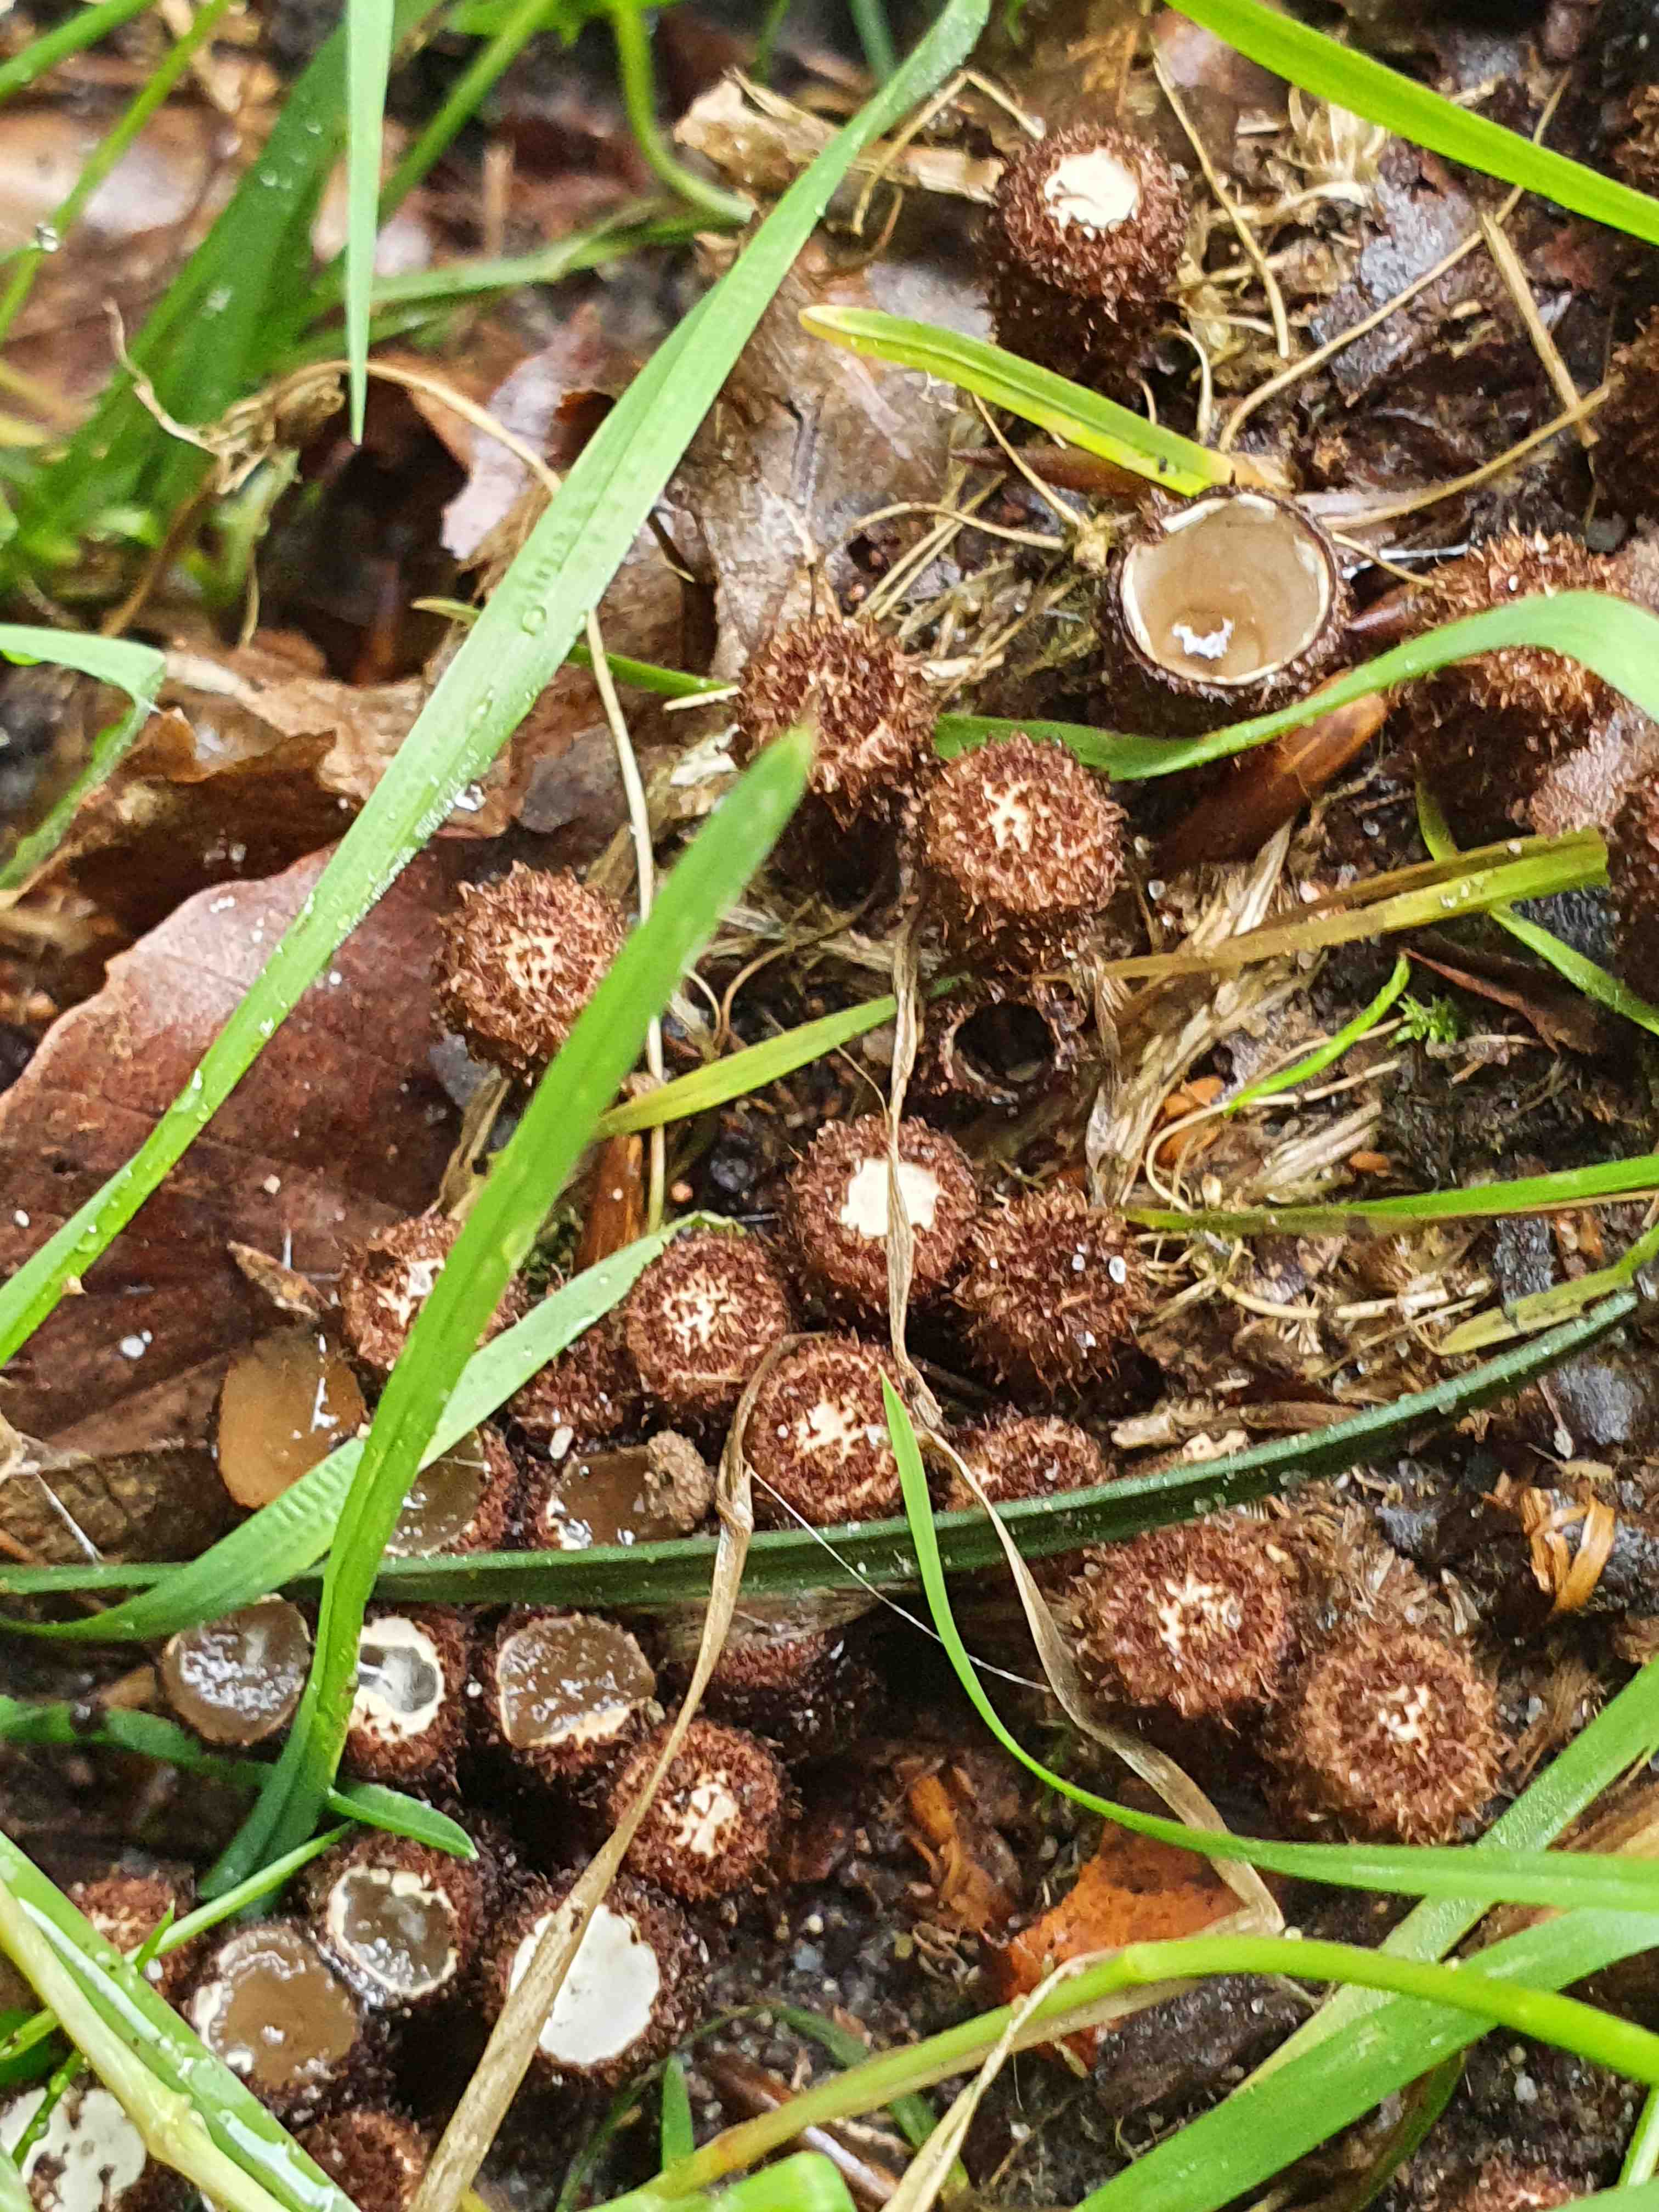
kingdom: Fungi
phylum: Basidiomycota
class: Agaricomycetes
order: Agaricales
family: Agaricaceae
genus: Cyathus
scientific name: Cyathus striatus
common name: stribet redesvamp
